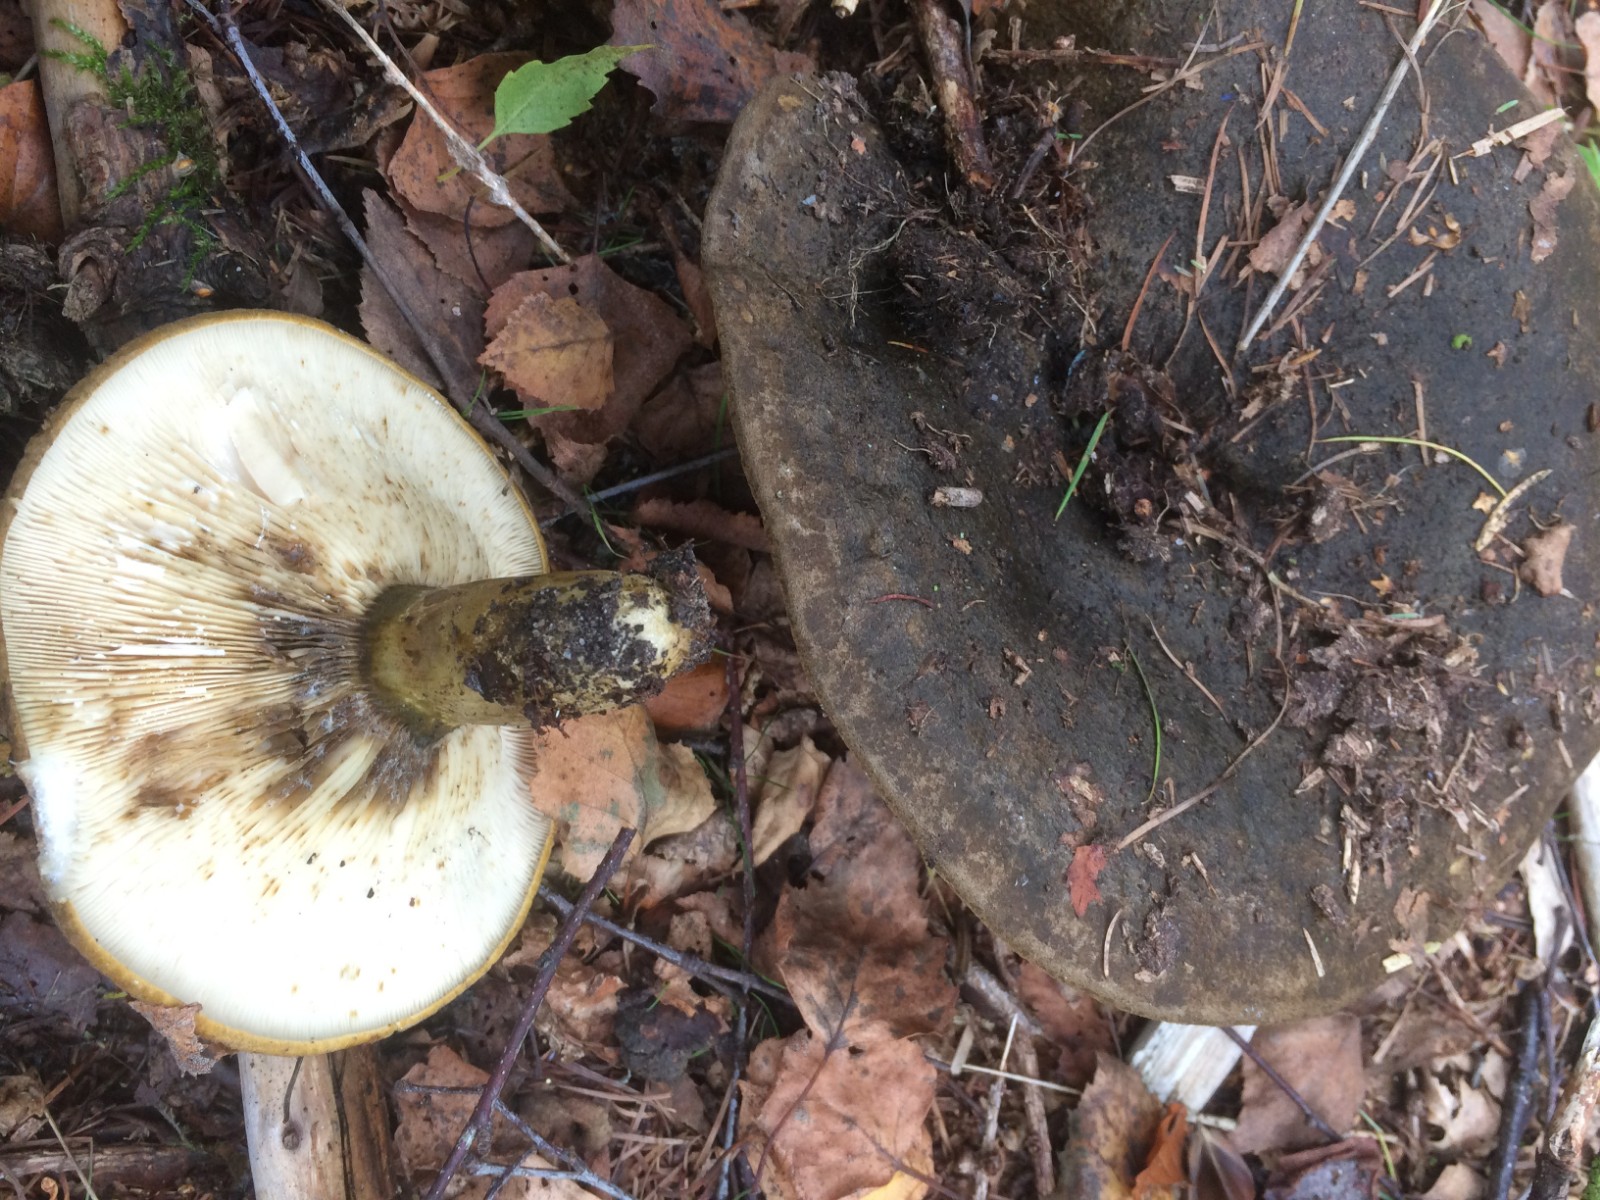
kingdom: Fungi
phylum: Basidiomycota
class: Agaricomycetes
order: Russulales
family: Russulaceae
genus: Lactarius
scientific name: Lactarius necator
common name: manddraber-mælkehat
